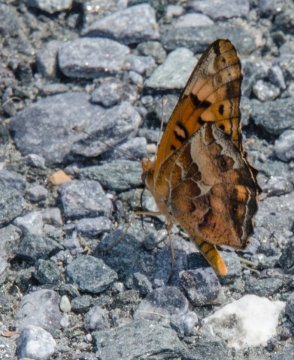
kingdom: Animalia
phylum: Arthropoda
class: Insecta
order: Lepidoptera
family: Nymphalidae
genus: Euptoieta
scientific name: Euptoieta claudia
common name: Variegated Fritillary
